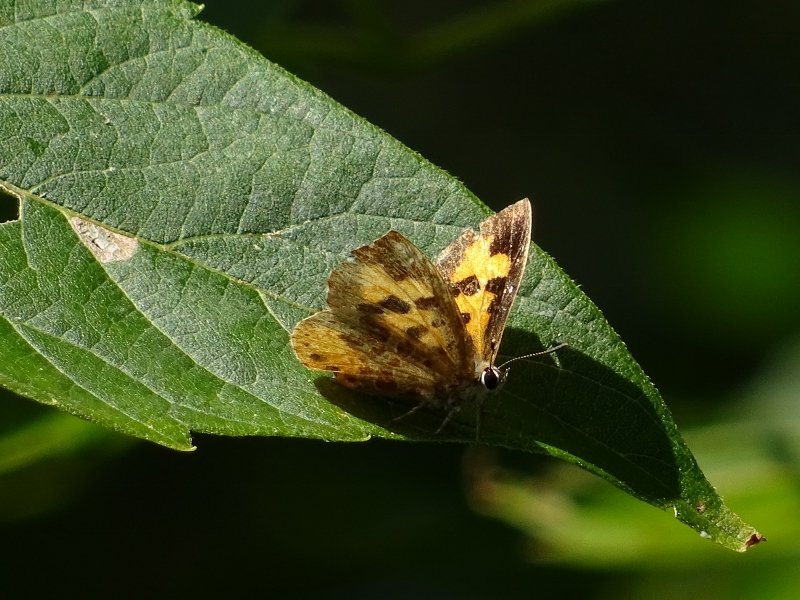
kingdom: Animalia
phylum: Arthropoda
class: Insecta
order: Lepidoptera
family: Lycaenidae
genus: Feniseca
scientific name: Feniseca tarquinius
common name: Harvester
